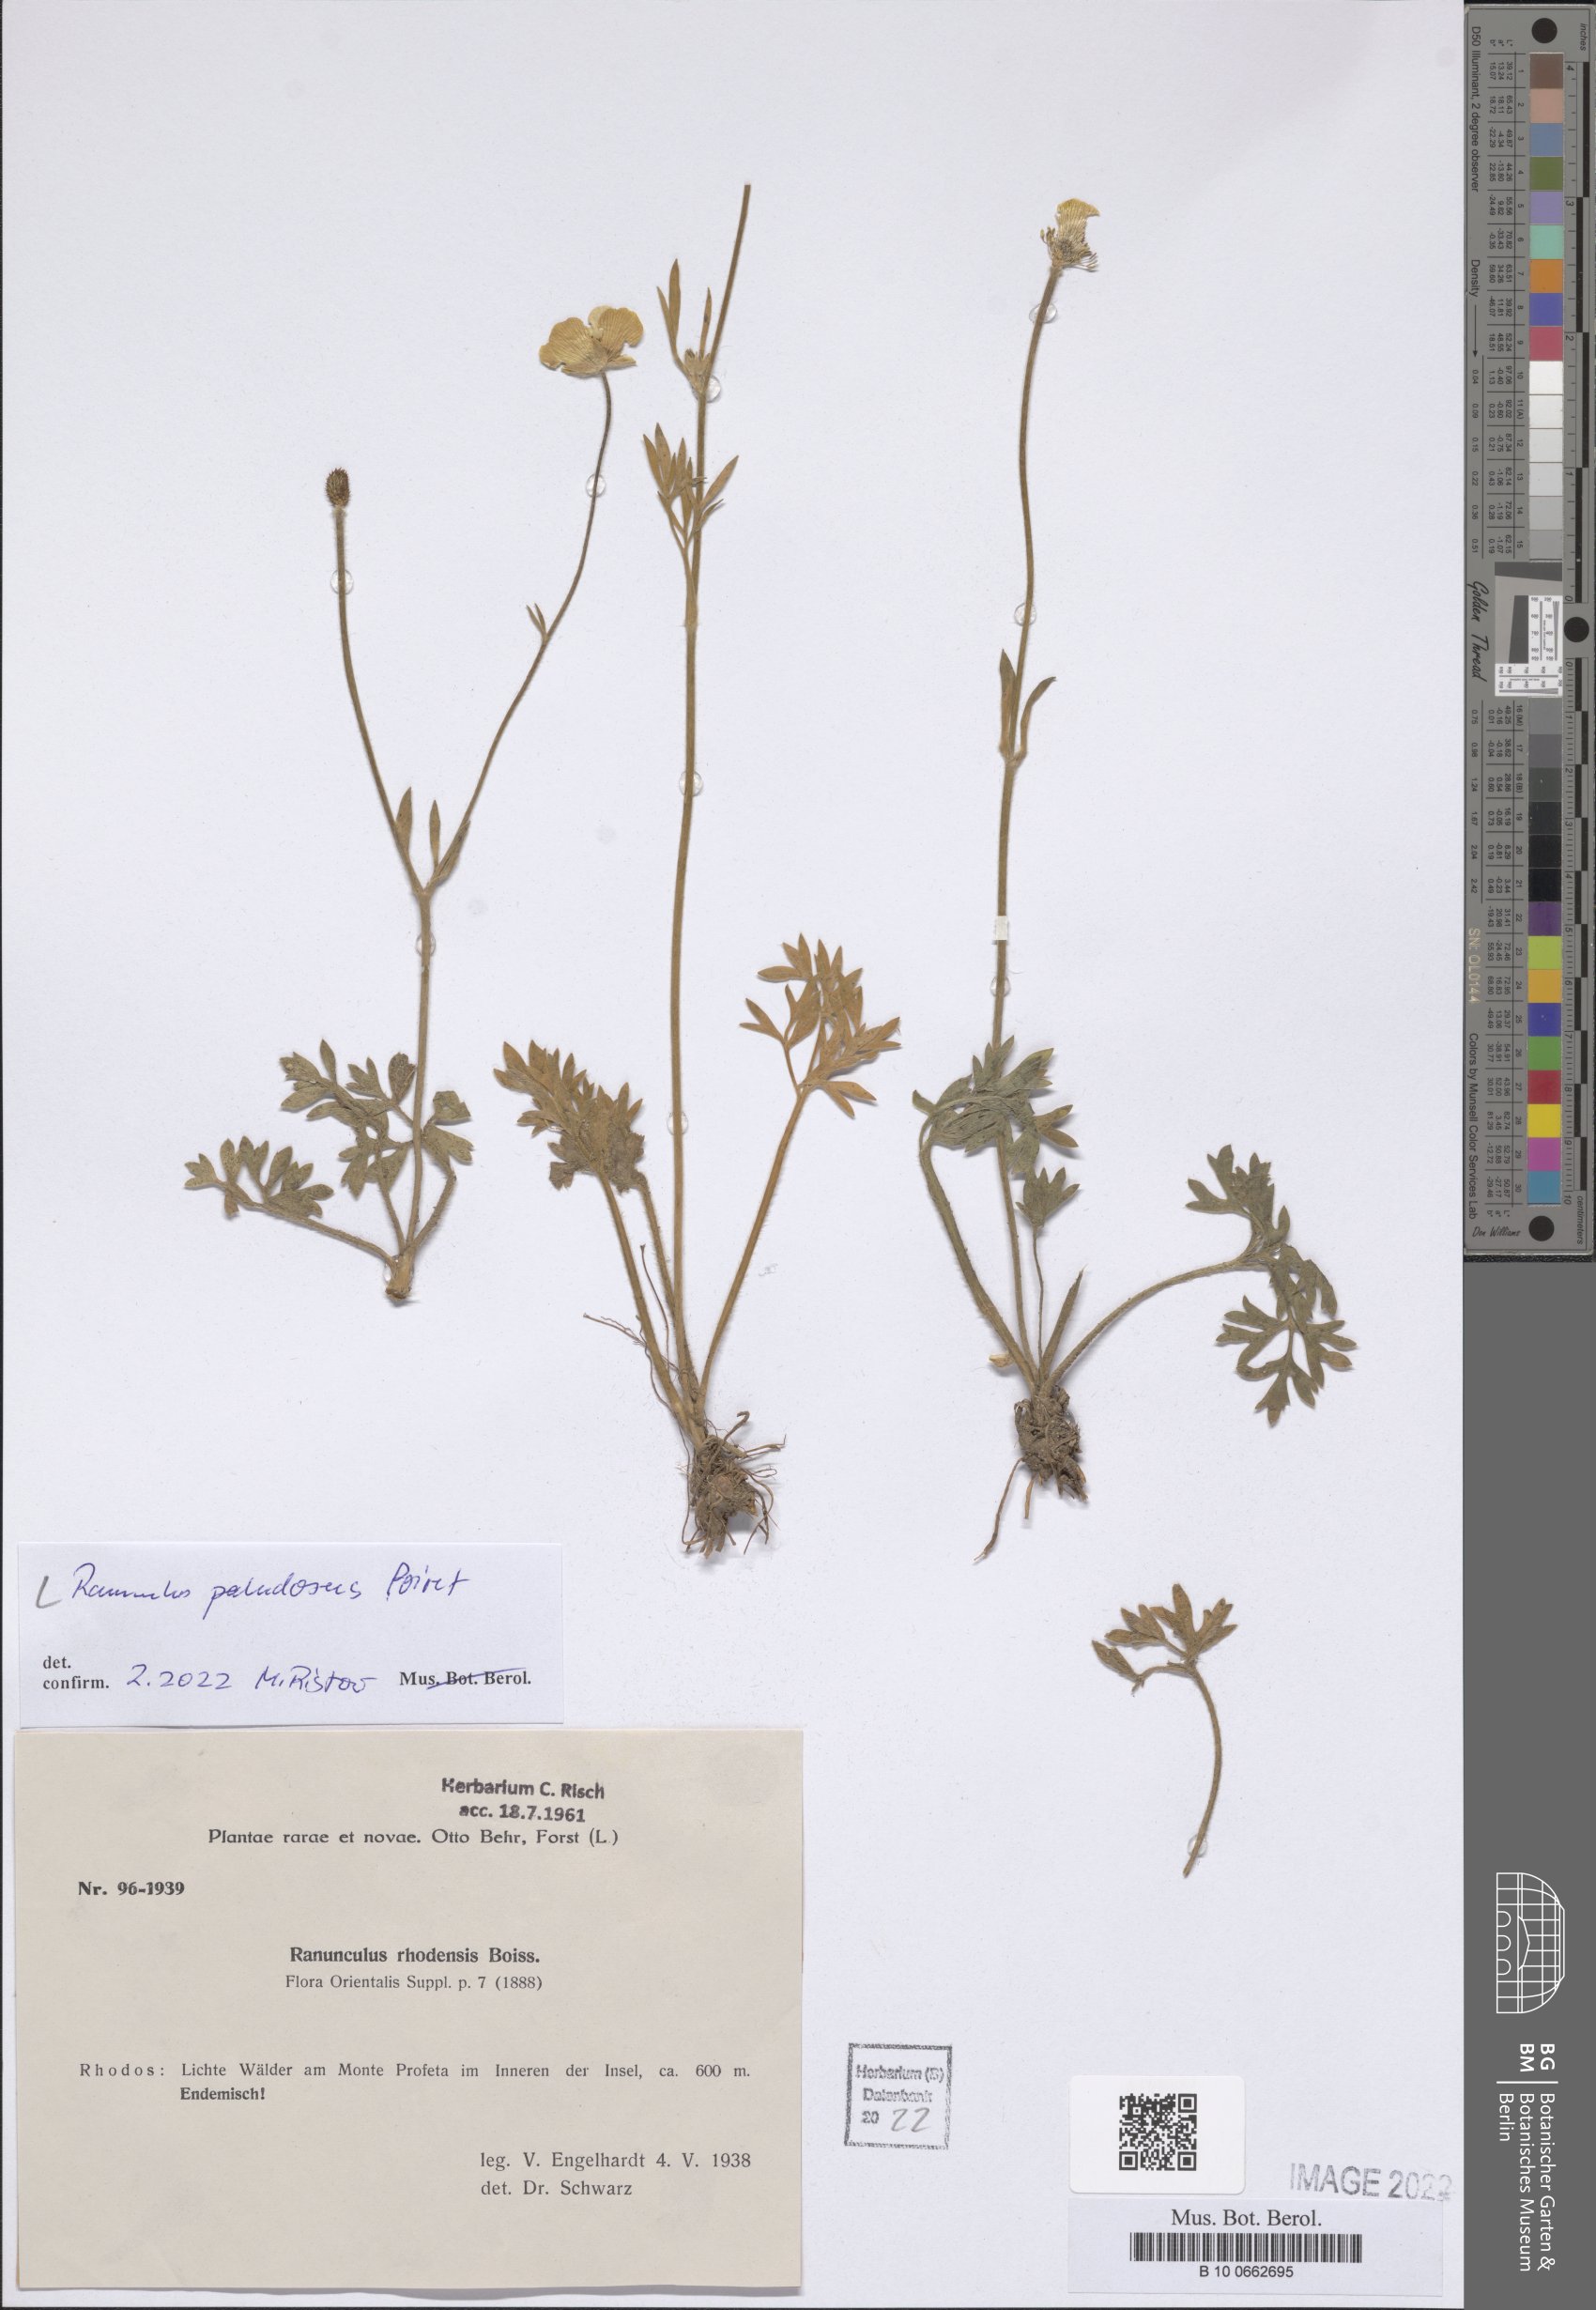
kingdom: Plantae
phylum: Tracheophyta
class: Magnoliopsida
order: Ranunculales
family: Ranunculaceae
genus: Ranunculus
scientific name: Ranunculus paludosus
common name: Jersey buttercup
